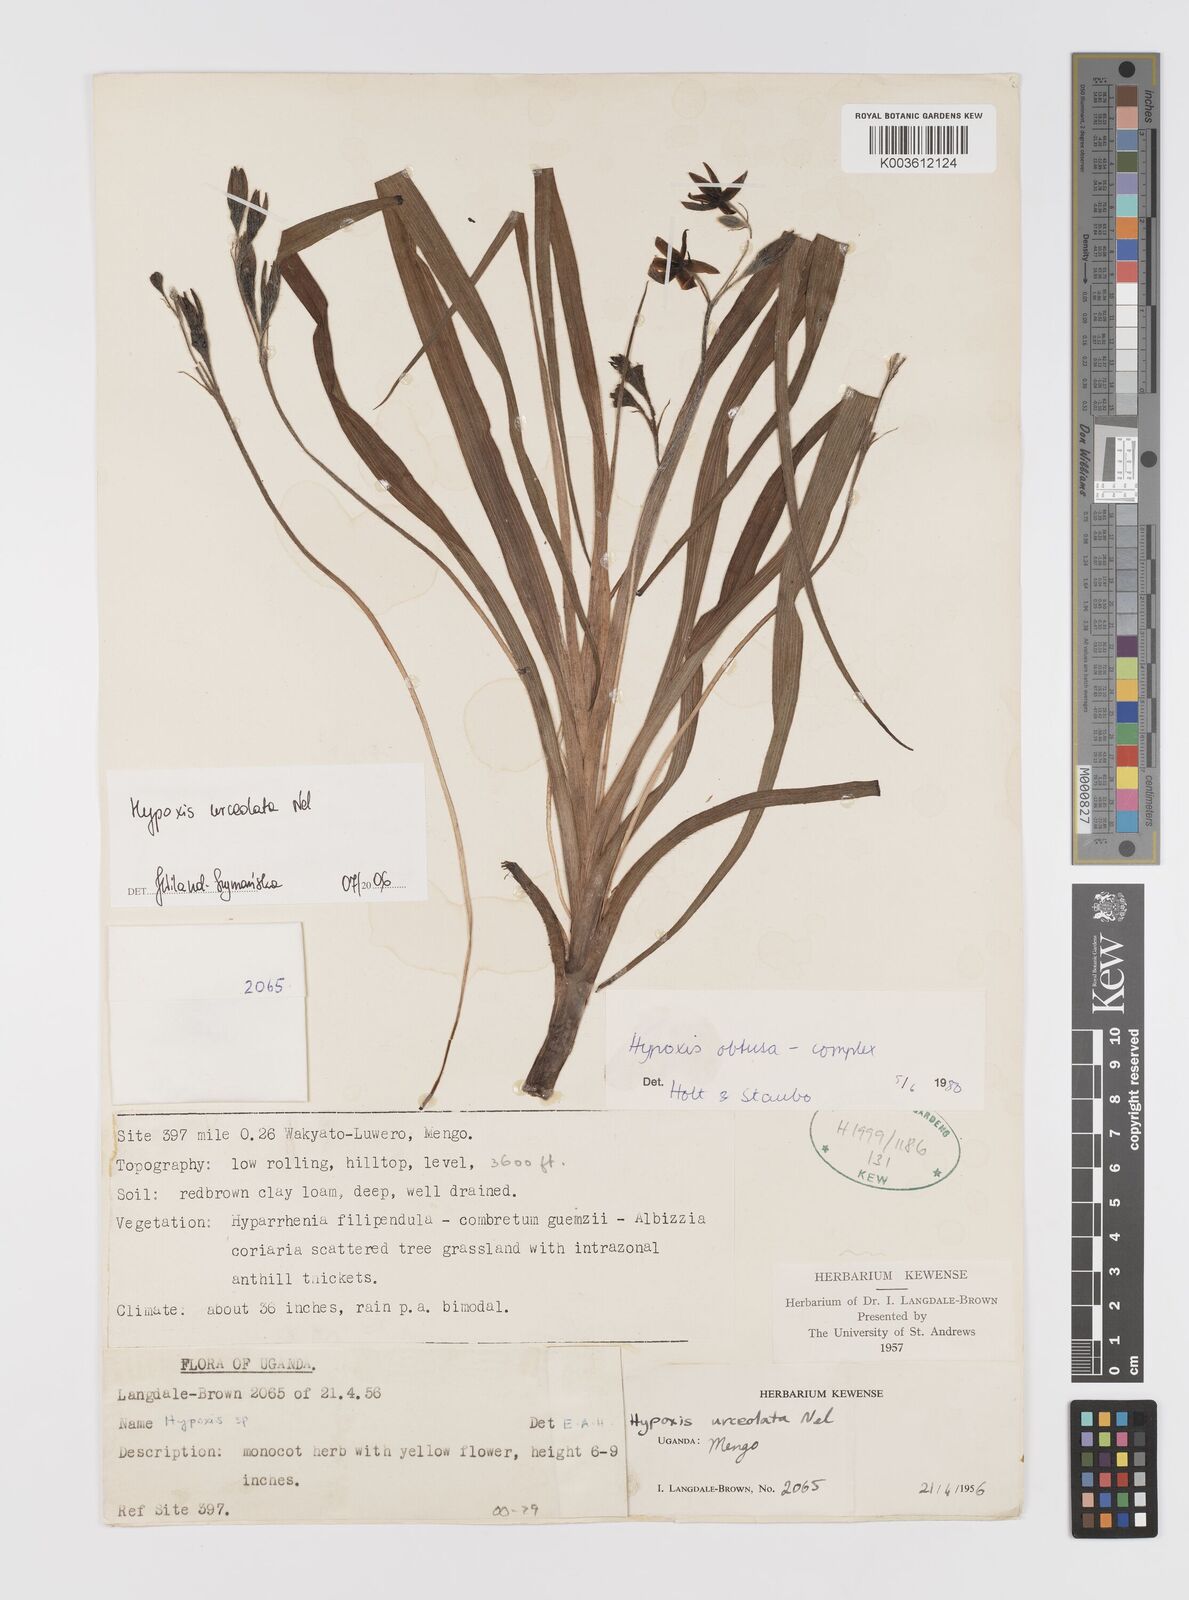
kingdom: Plantae
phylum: Tracheophyta
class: Liliopsida
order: Asparagales
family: Hypoxidaceae
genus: Hypoxis
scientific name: Hypoxis urceolata
